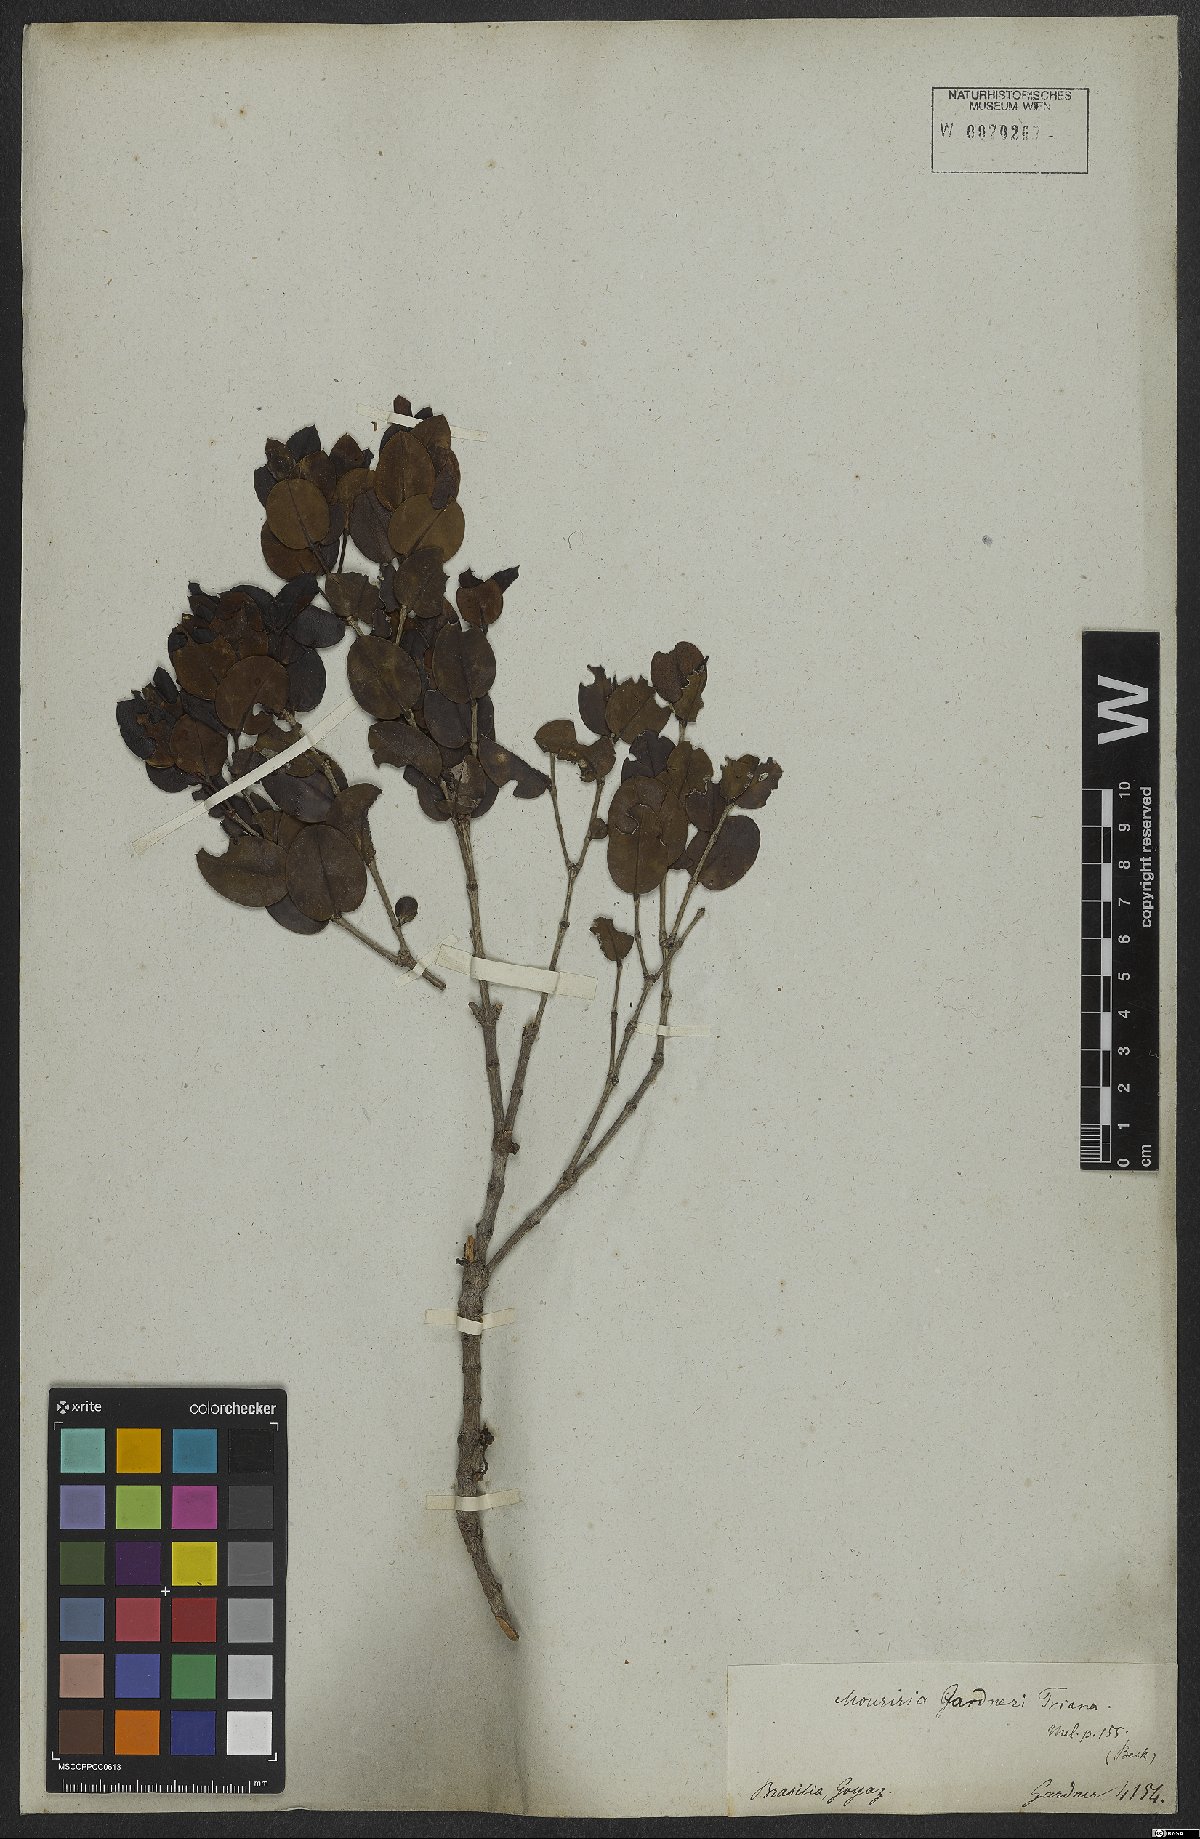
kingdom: Plantae
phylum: Tracheophyta
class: Magnoliopsida
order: Myrtales
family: Melastomataceae
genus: Mouriri
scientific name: Mouriri gardneri
